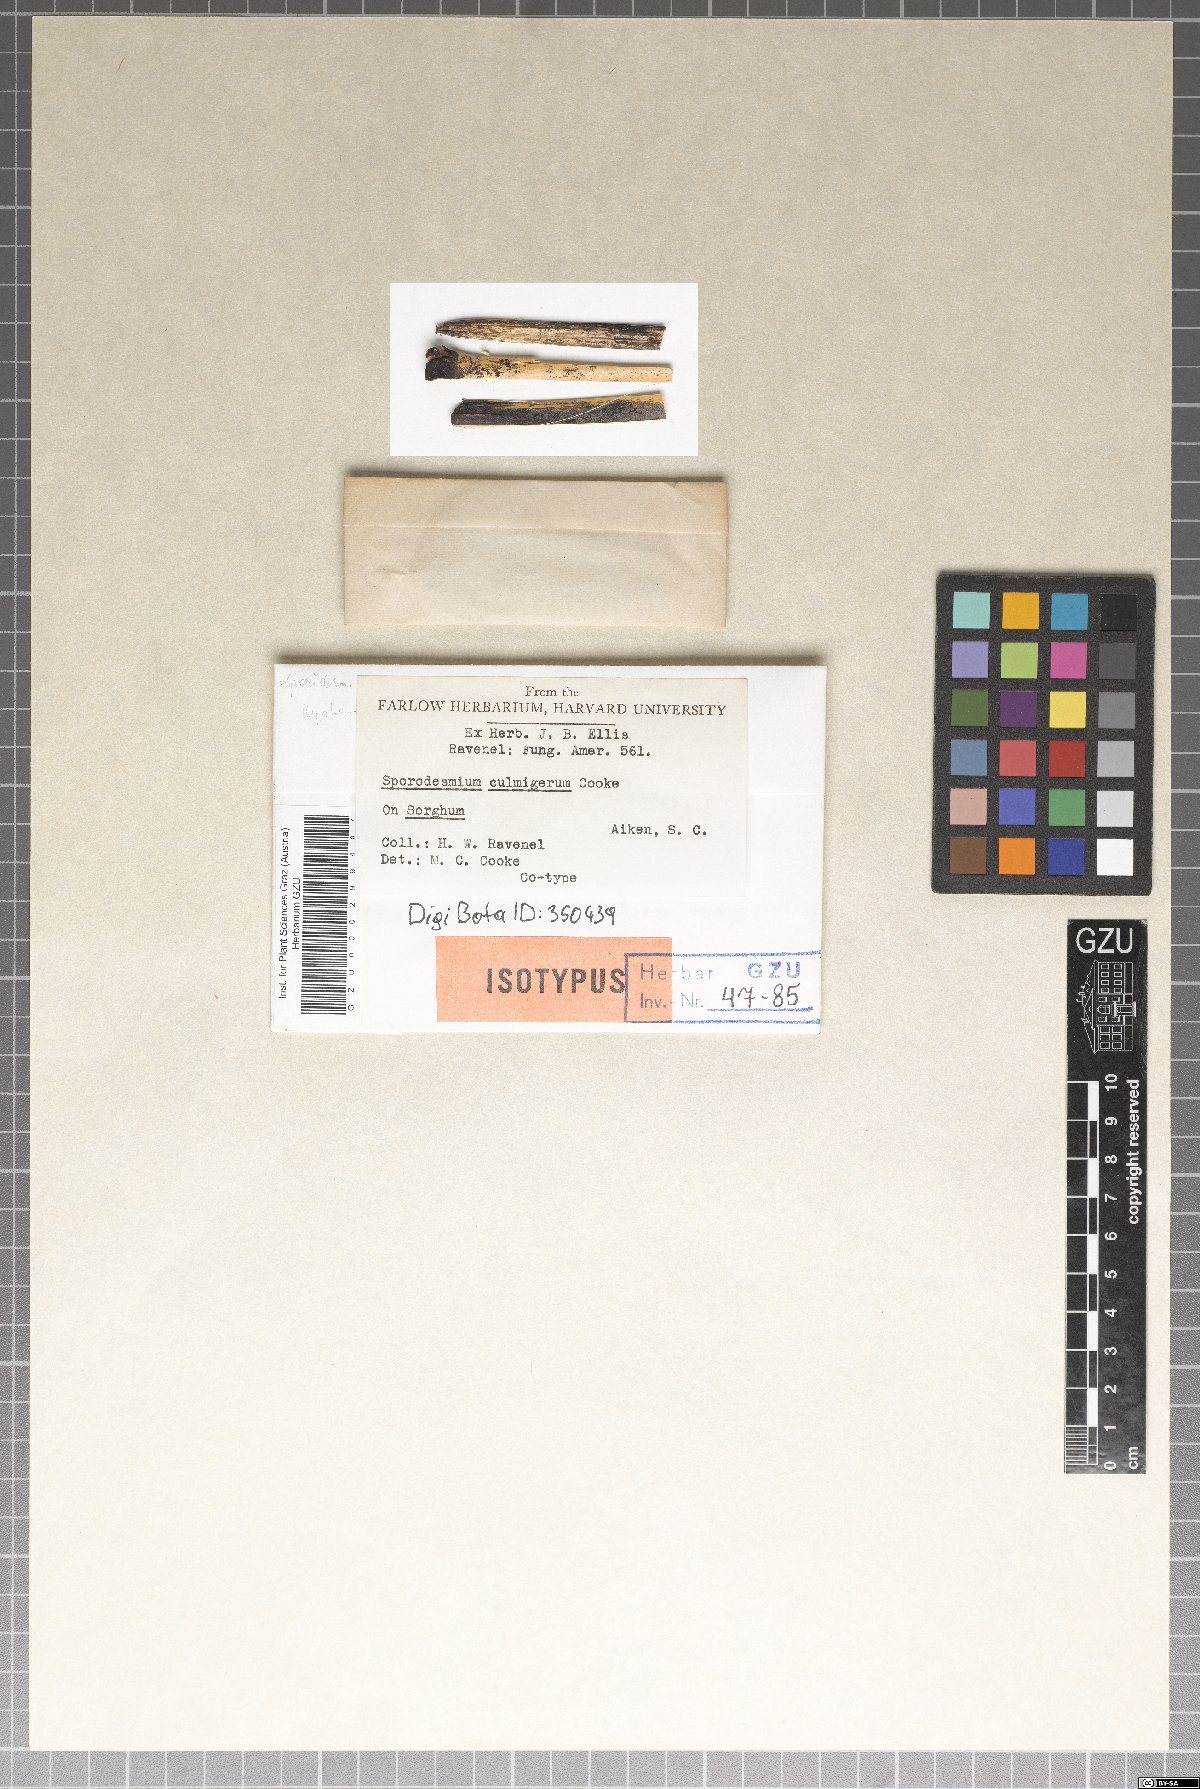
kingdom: Fungi
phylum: Ascomycota
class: Dothideomycetes
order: Pleosporales
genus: Sporidesmium
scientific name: Sporidesmium
